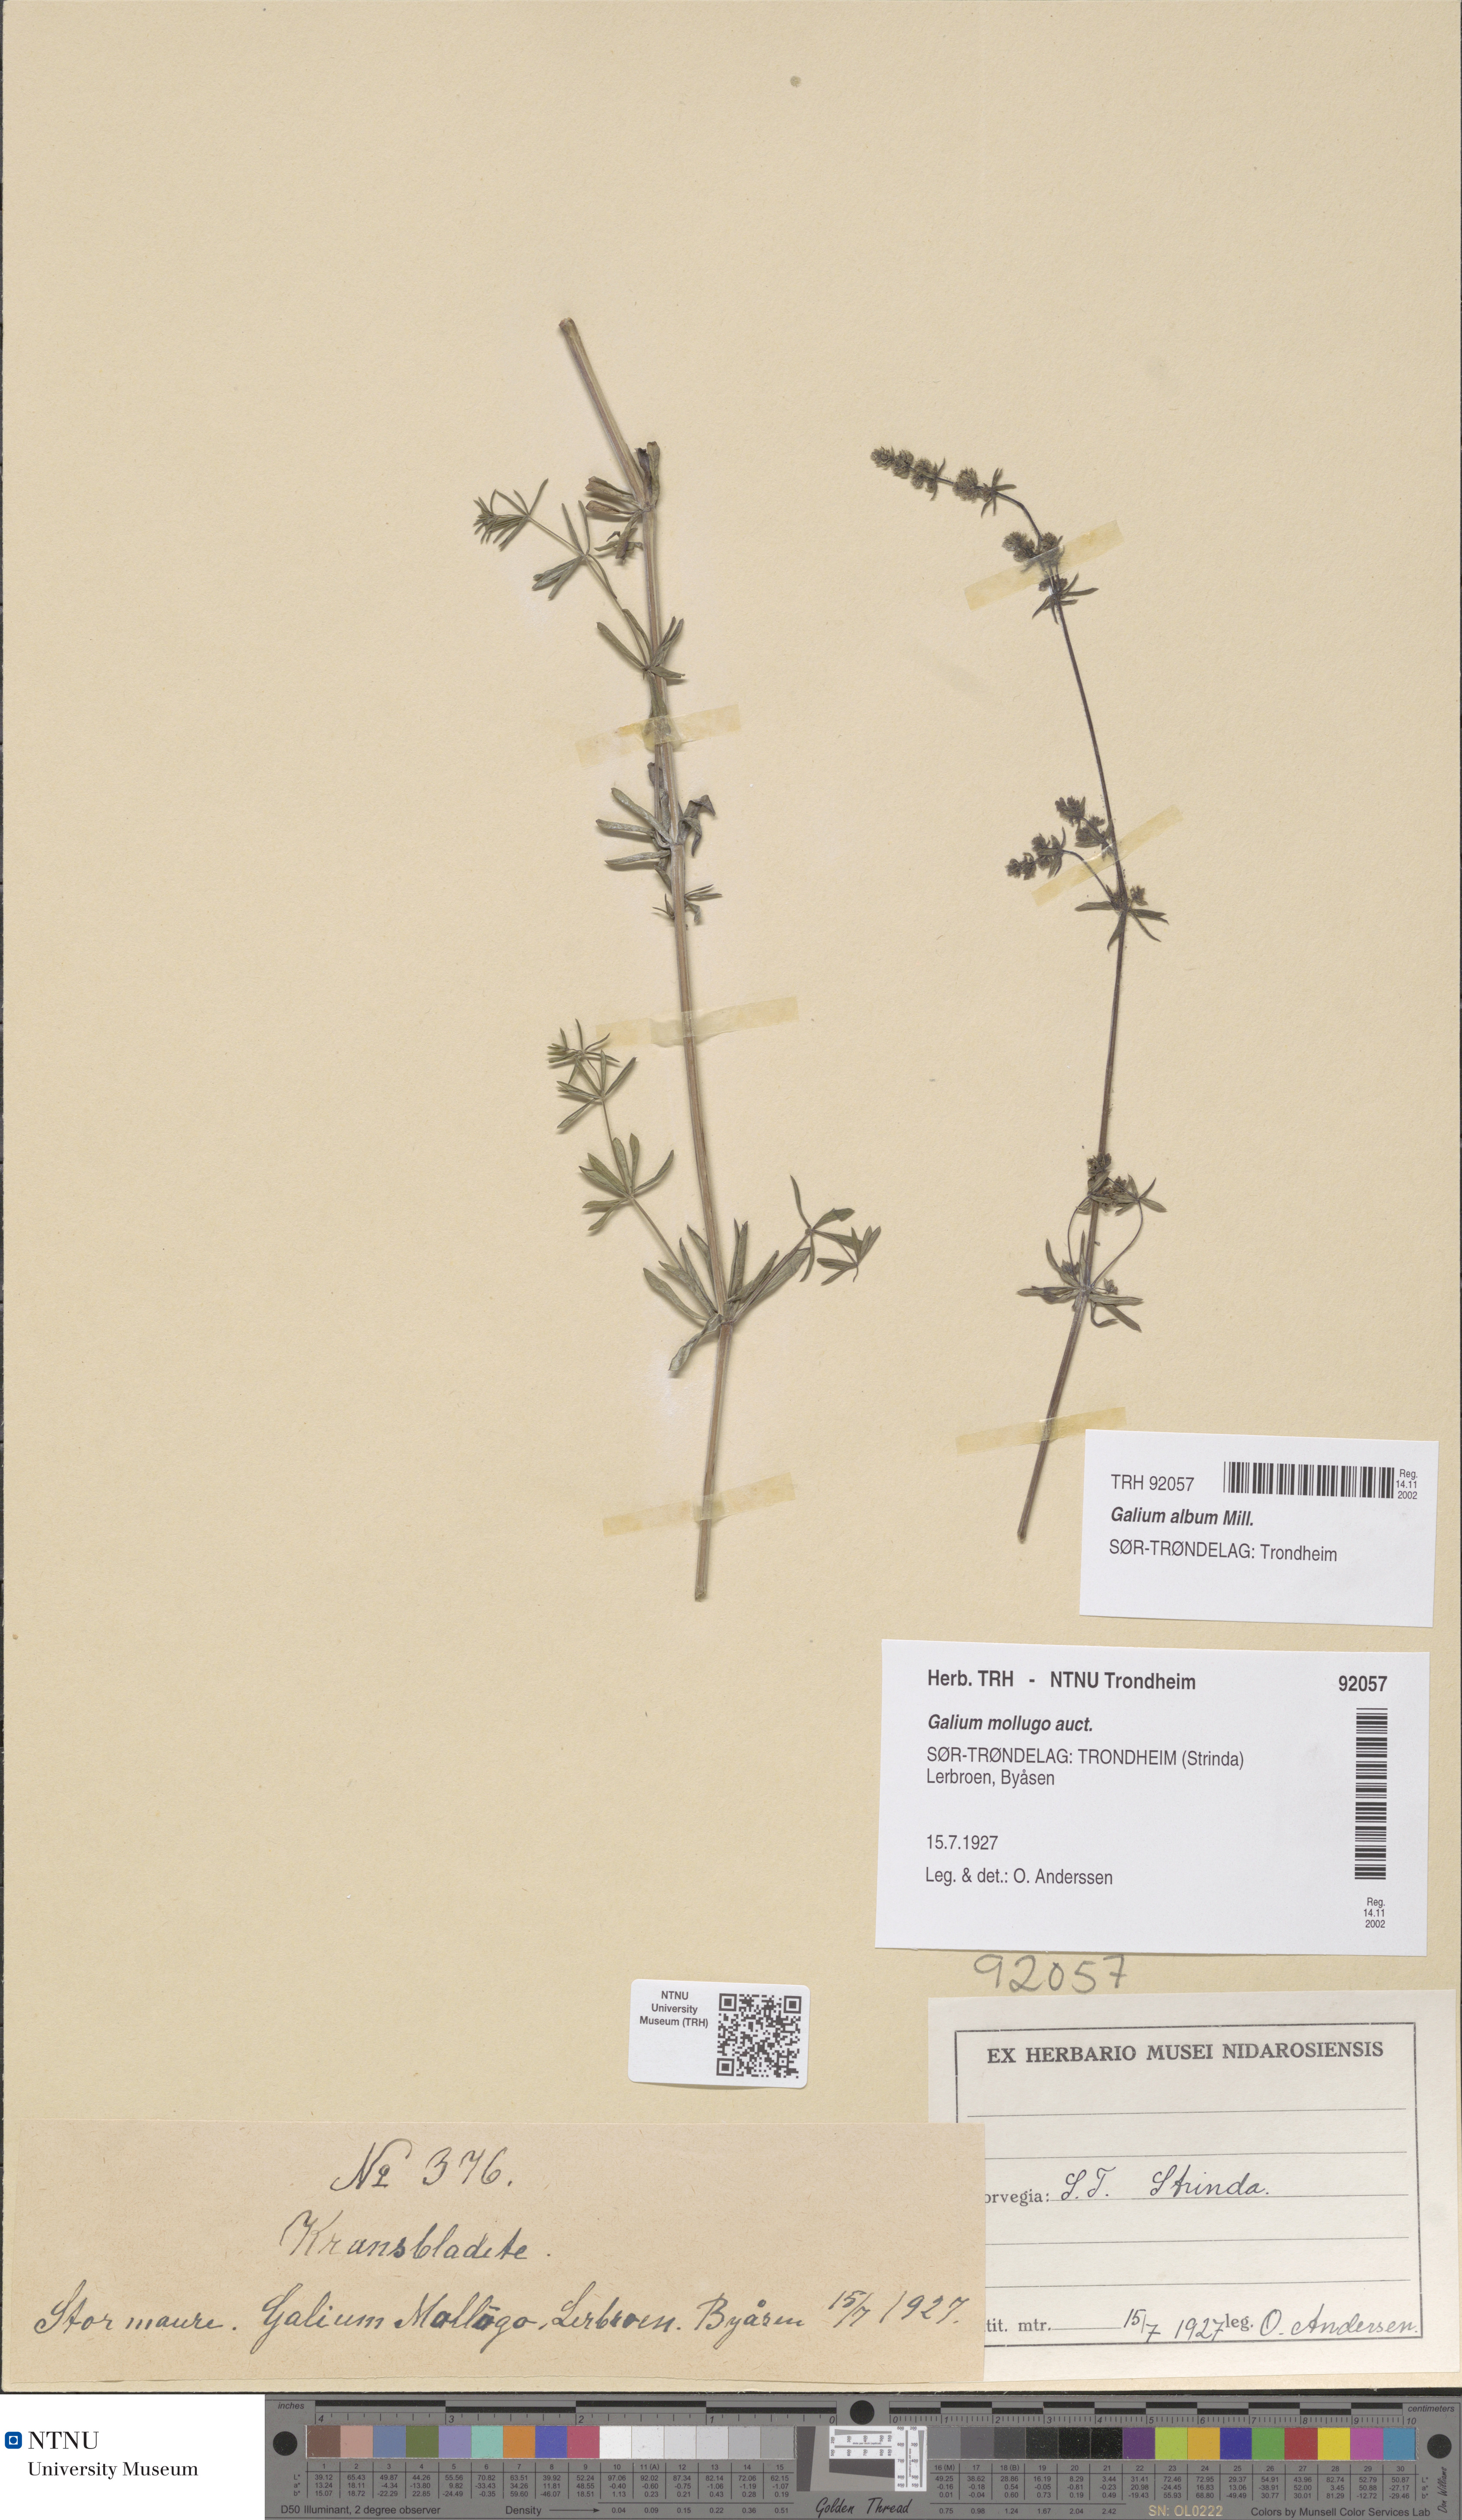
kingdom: Plantae
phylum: Tracheophyta
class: Magnoliopsida
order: Gentianales
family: Rubiaceae
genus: Galium
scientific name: Galium album
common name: White bedstraw
